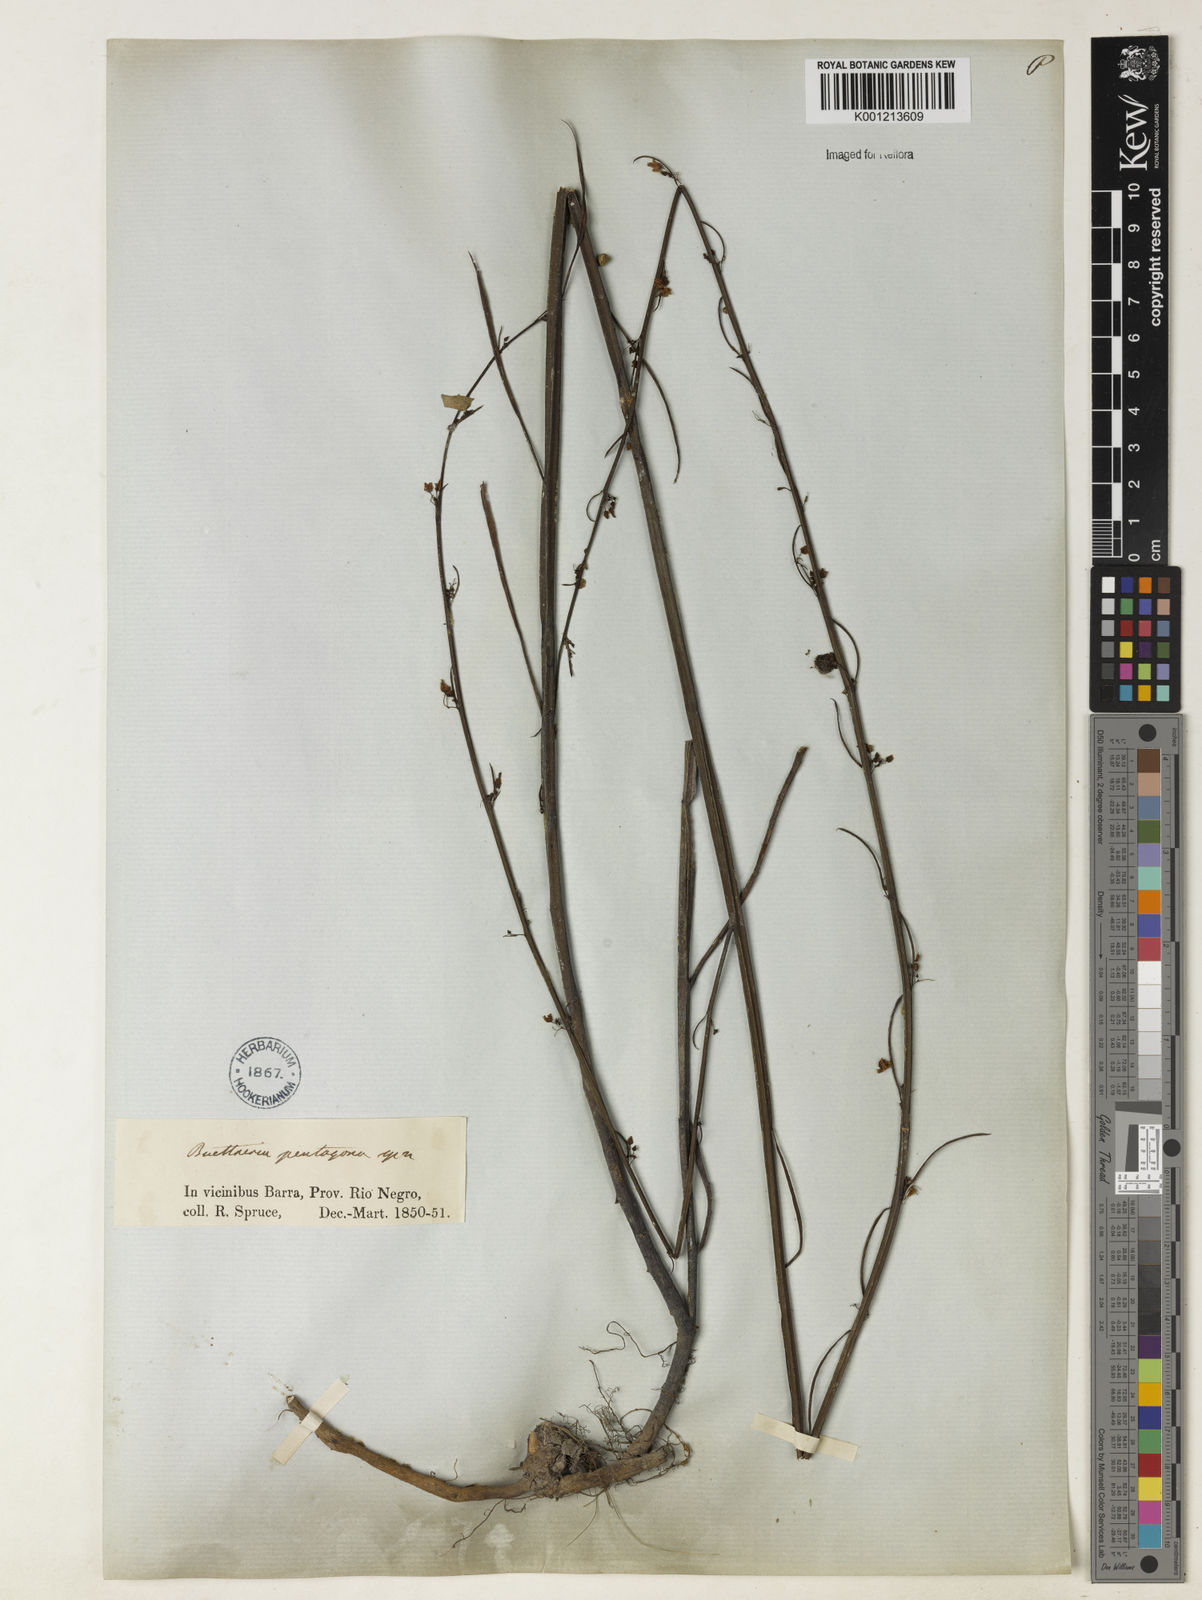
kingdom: Plantae
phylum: Tracheophyta
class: Magnoliopsida
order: Malvales
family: Malvaceae
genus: Byttneria
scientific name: Byttneria jaculifolia
